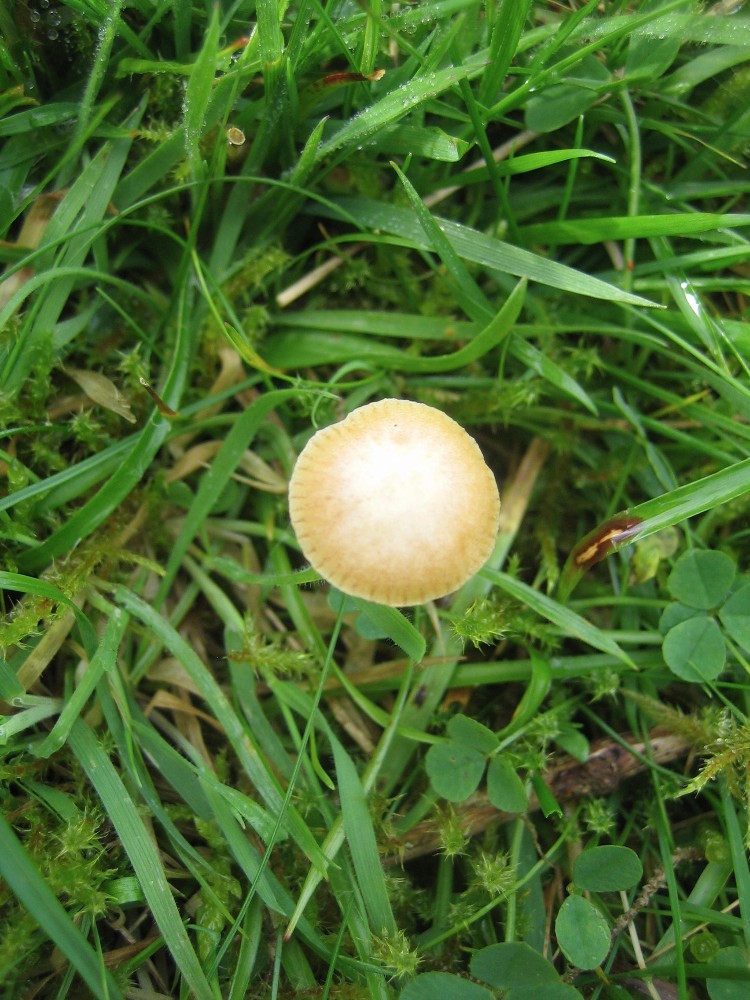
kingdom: Fungi
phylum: Basidiomycota
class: Agaricomycetes
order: Agaricales
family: Hymenogastraceae
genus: Galerina
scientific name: Galerina
